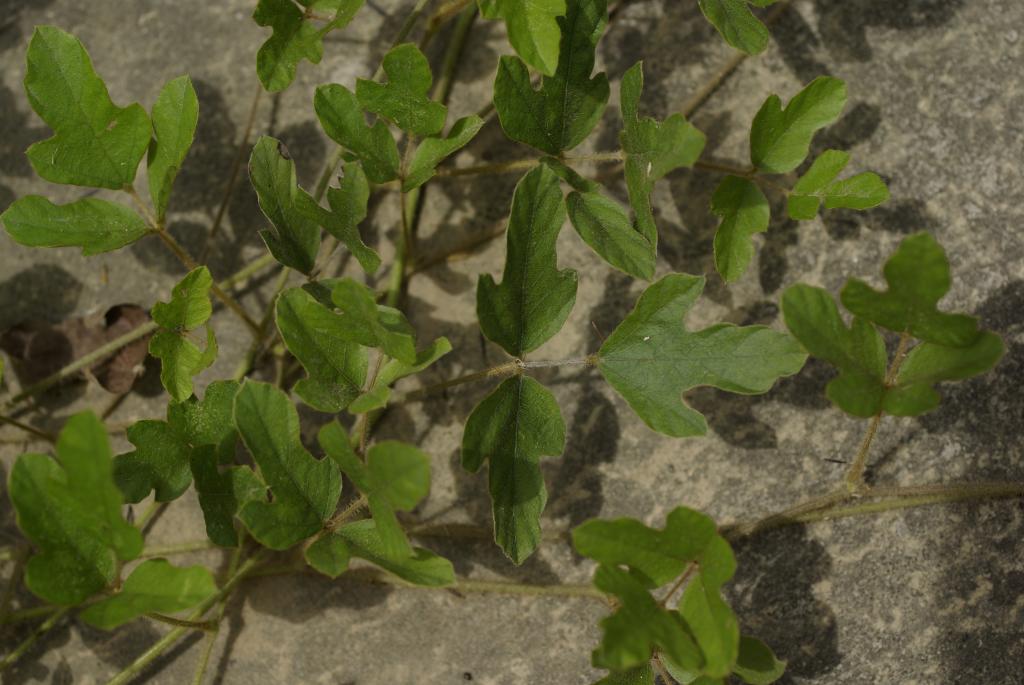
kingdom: Plantae
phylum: Tracheophyta
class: Magnoliopsida
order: Fabales
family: Fabaceae
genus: Neustanthus
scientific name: Neustanthus phaseoloides
